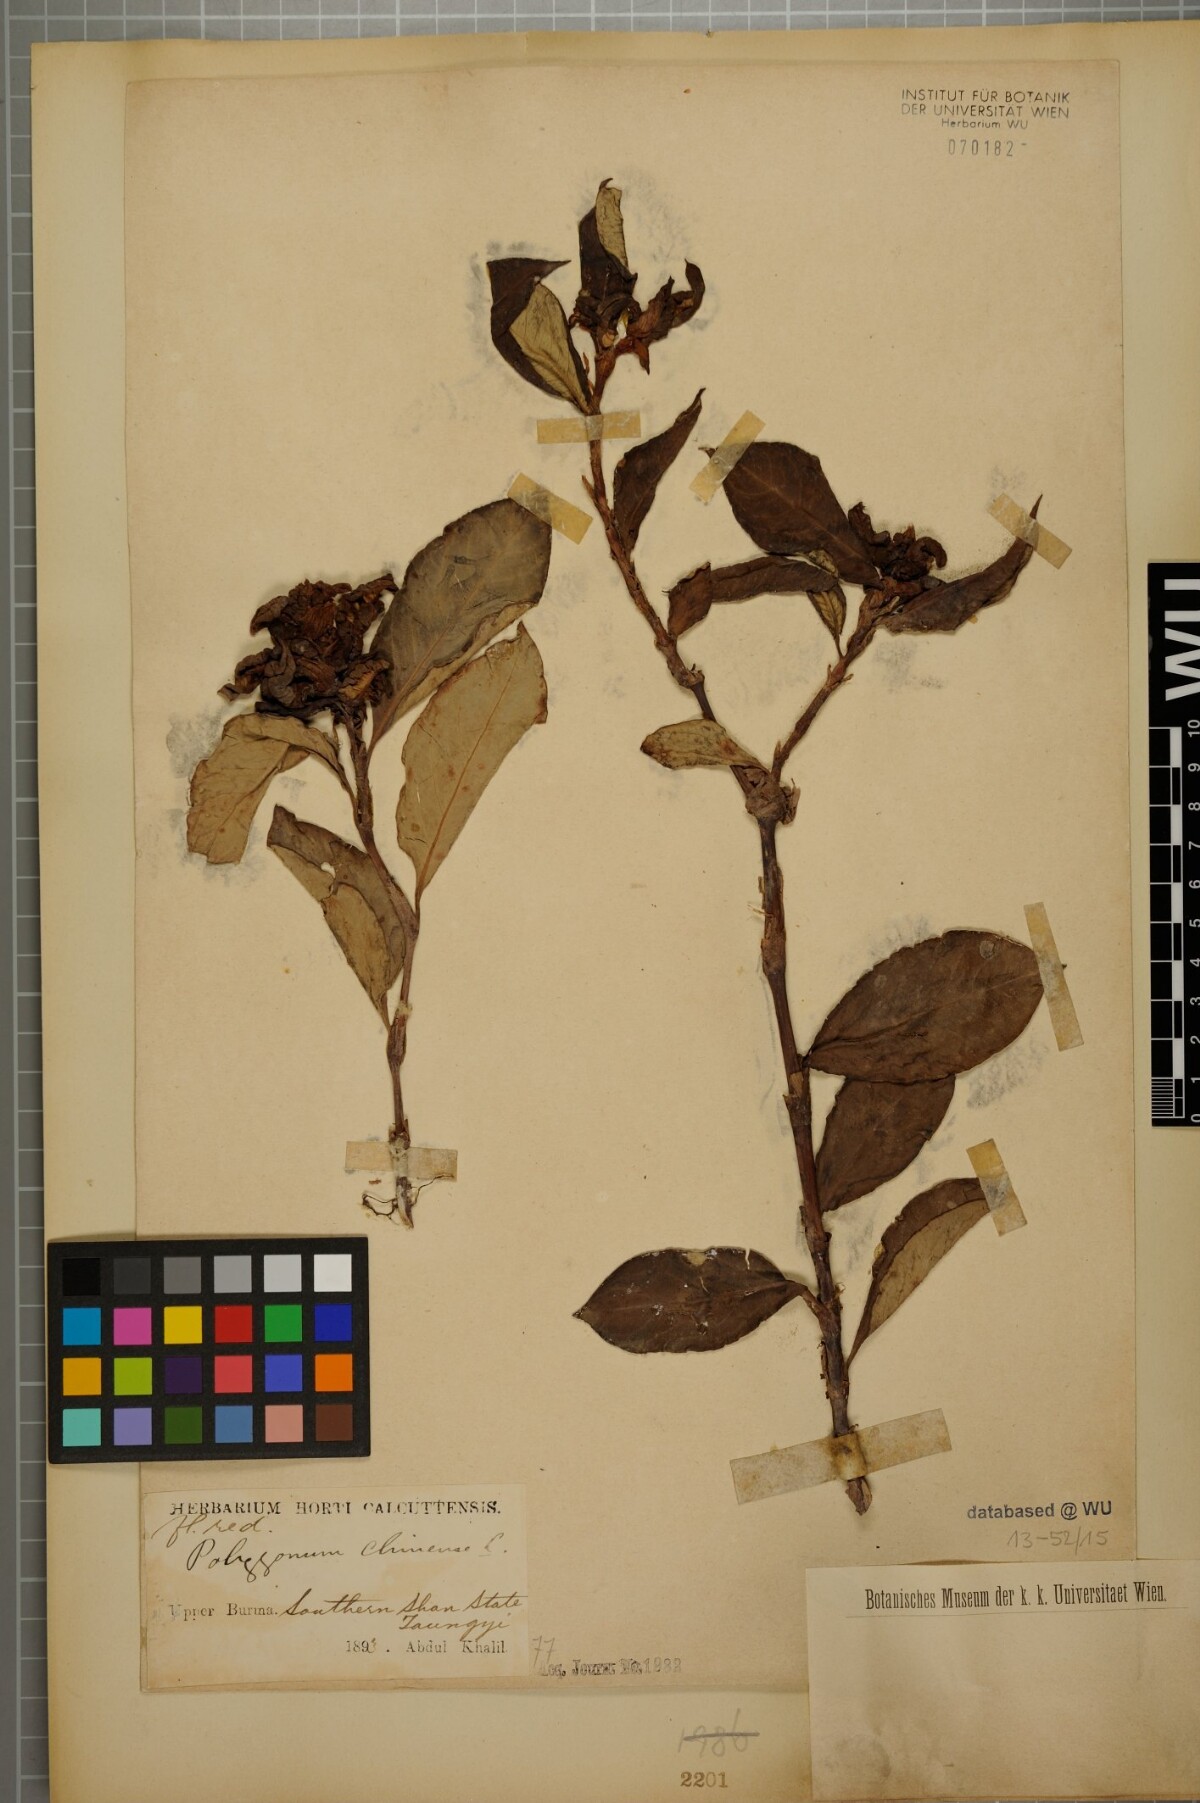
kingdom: Plantae
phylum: Tracheophyta
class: Magnoliopsida
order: Caryophyllales
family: Polygonaceae
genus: Persicaria
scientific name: Persicaria chinensis
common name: Chinese knotweed
